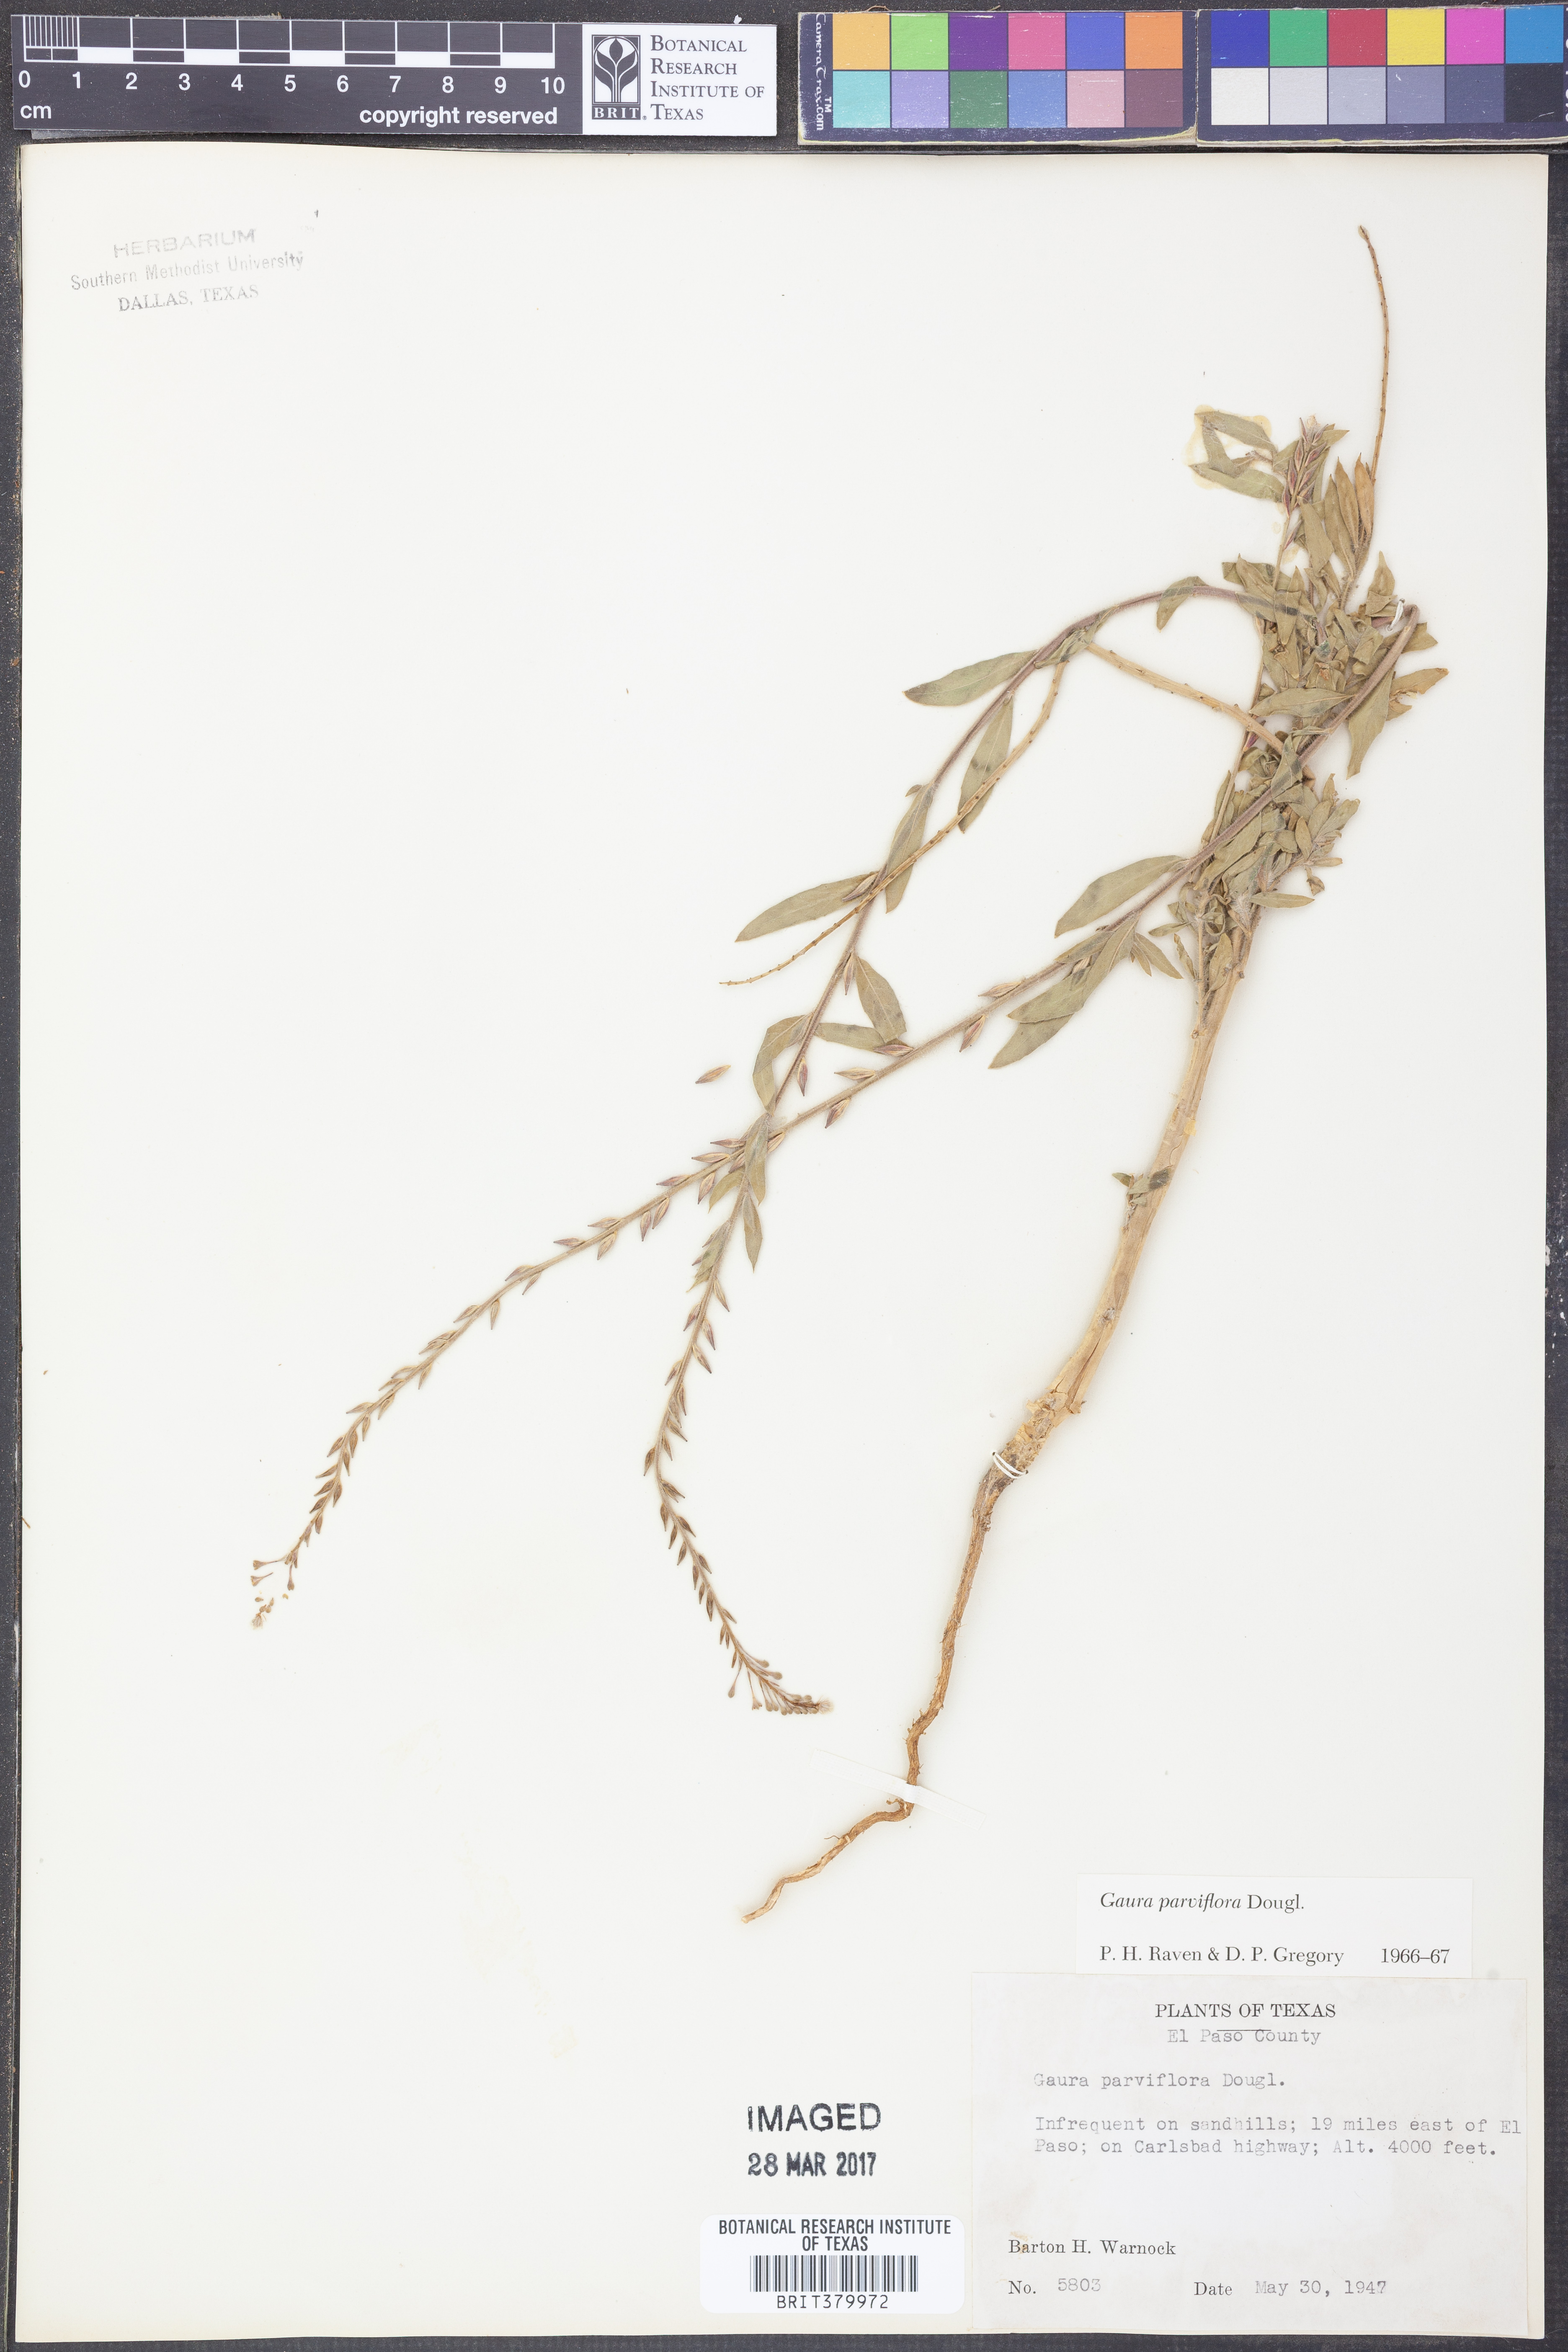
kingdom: Plantae
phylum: Tracheophyta
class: Magnoliopsida
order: Myrtales
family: Onagraceae
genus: Oenothera
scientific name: Oenothera curtiflora
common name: Velvetweed
